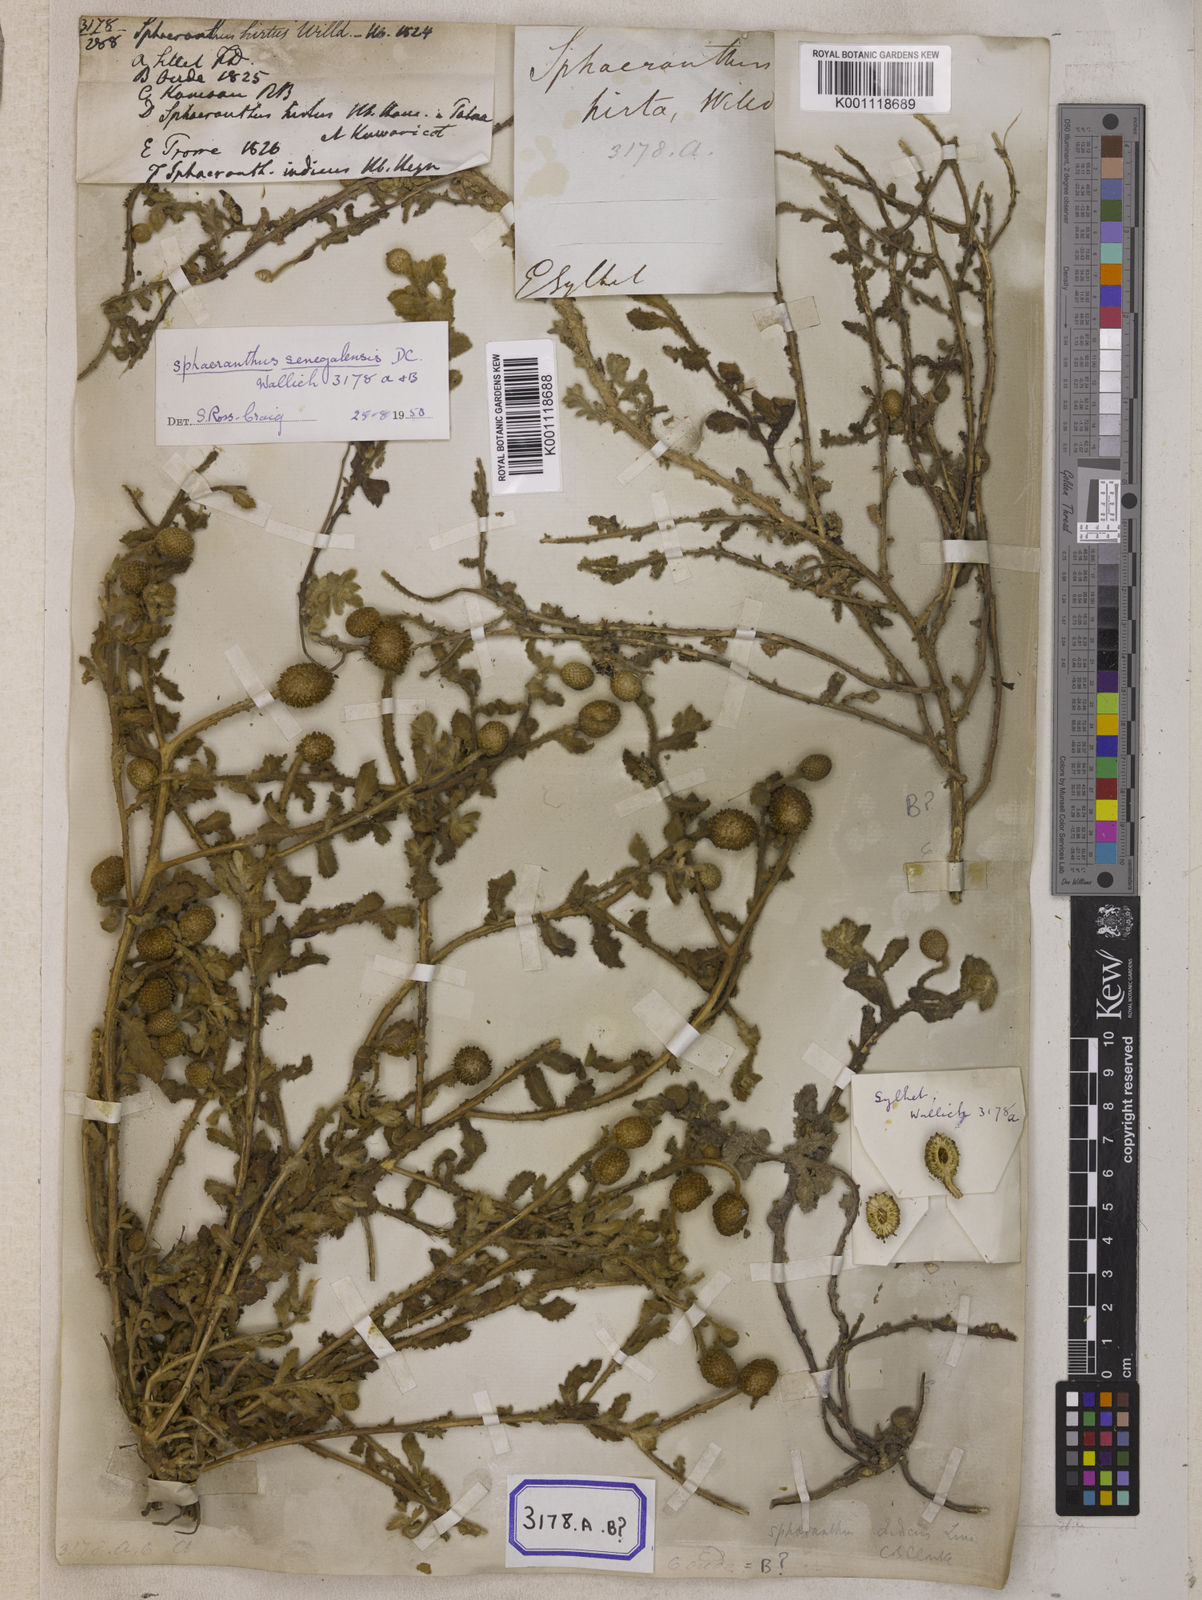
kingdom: Plantae
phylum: Tracheophyta
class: Magnoliopsida
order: Asterales
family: Asteraceae
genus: Sphaeranthus
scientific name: Sphaeranthus indicus
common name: East indian globe thistle
